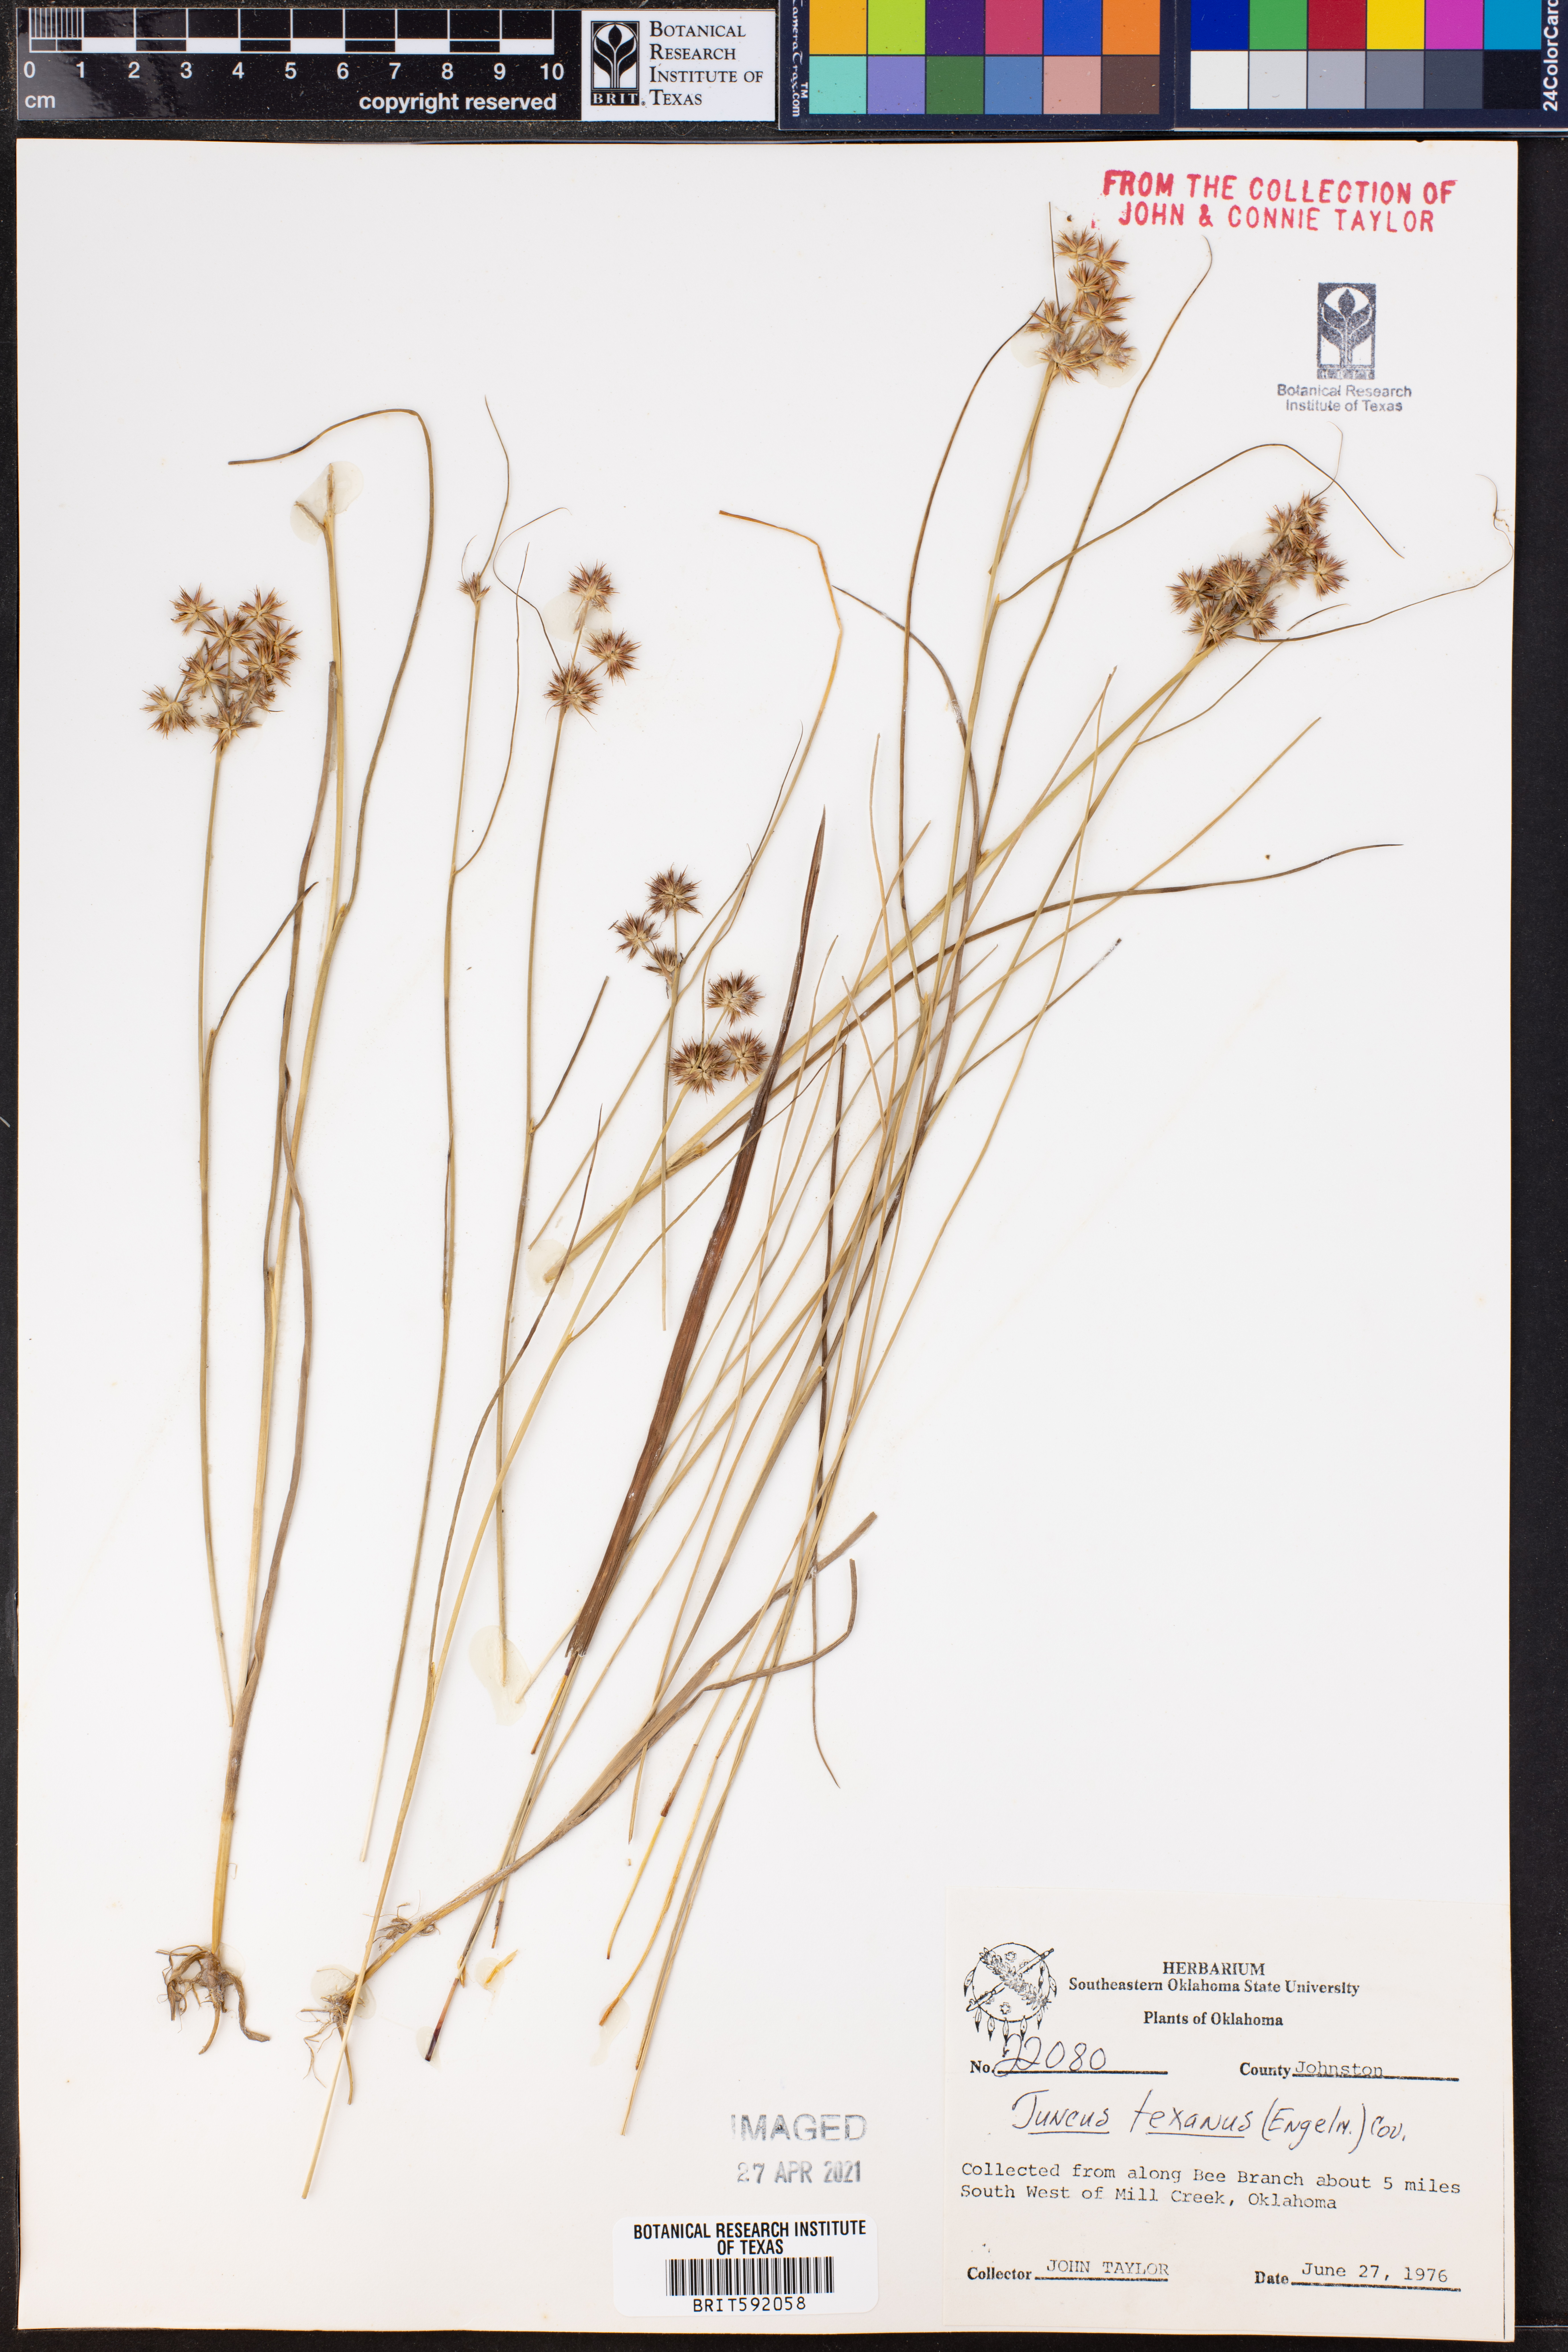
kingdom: Plantae
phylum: Tracheophyta
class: Liliopsida
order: Poales
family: Juncaceae
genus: Juncus
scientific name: Juncus texanus
